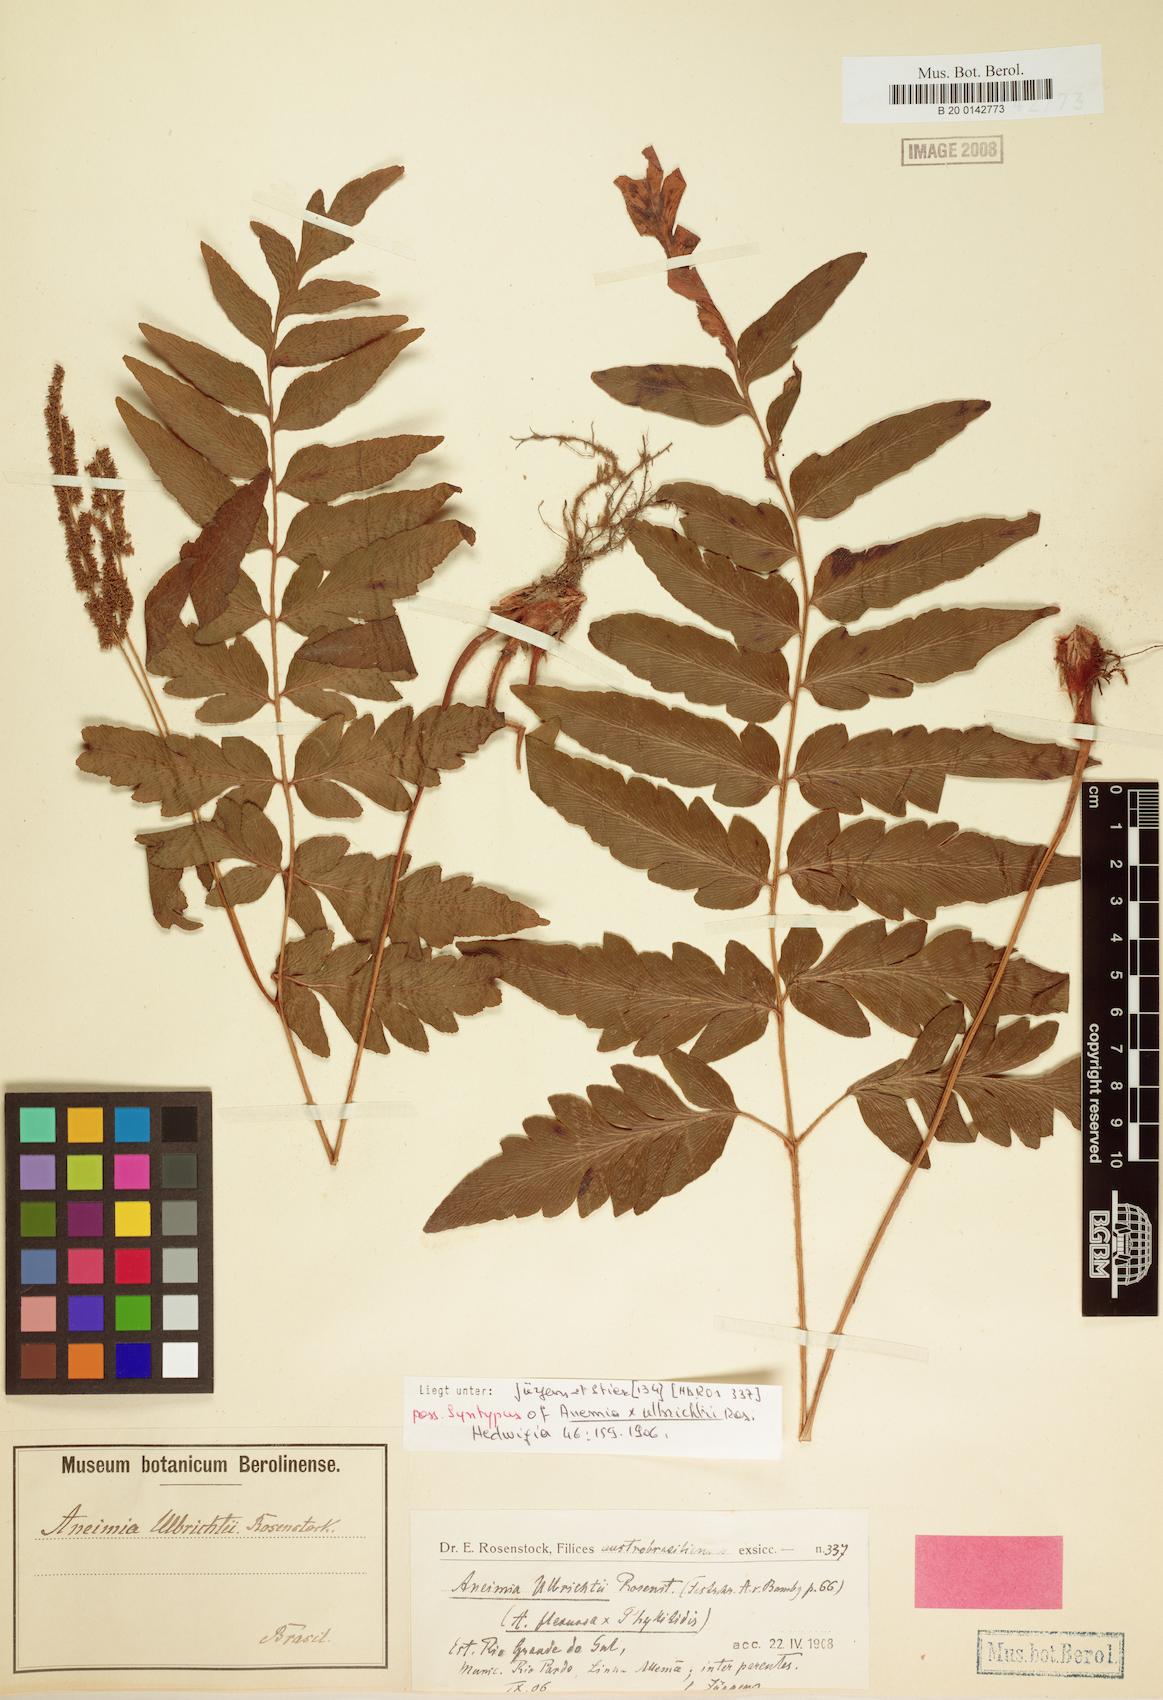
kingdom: Plantae
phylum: Tracheophyta
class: Polypodiopsida
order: Schizaeales
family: Anemiaceae
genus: Anemia
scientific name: Anemia ulbrichtii
